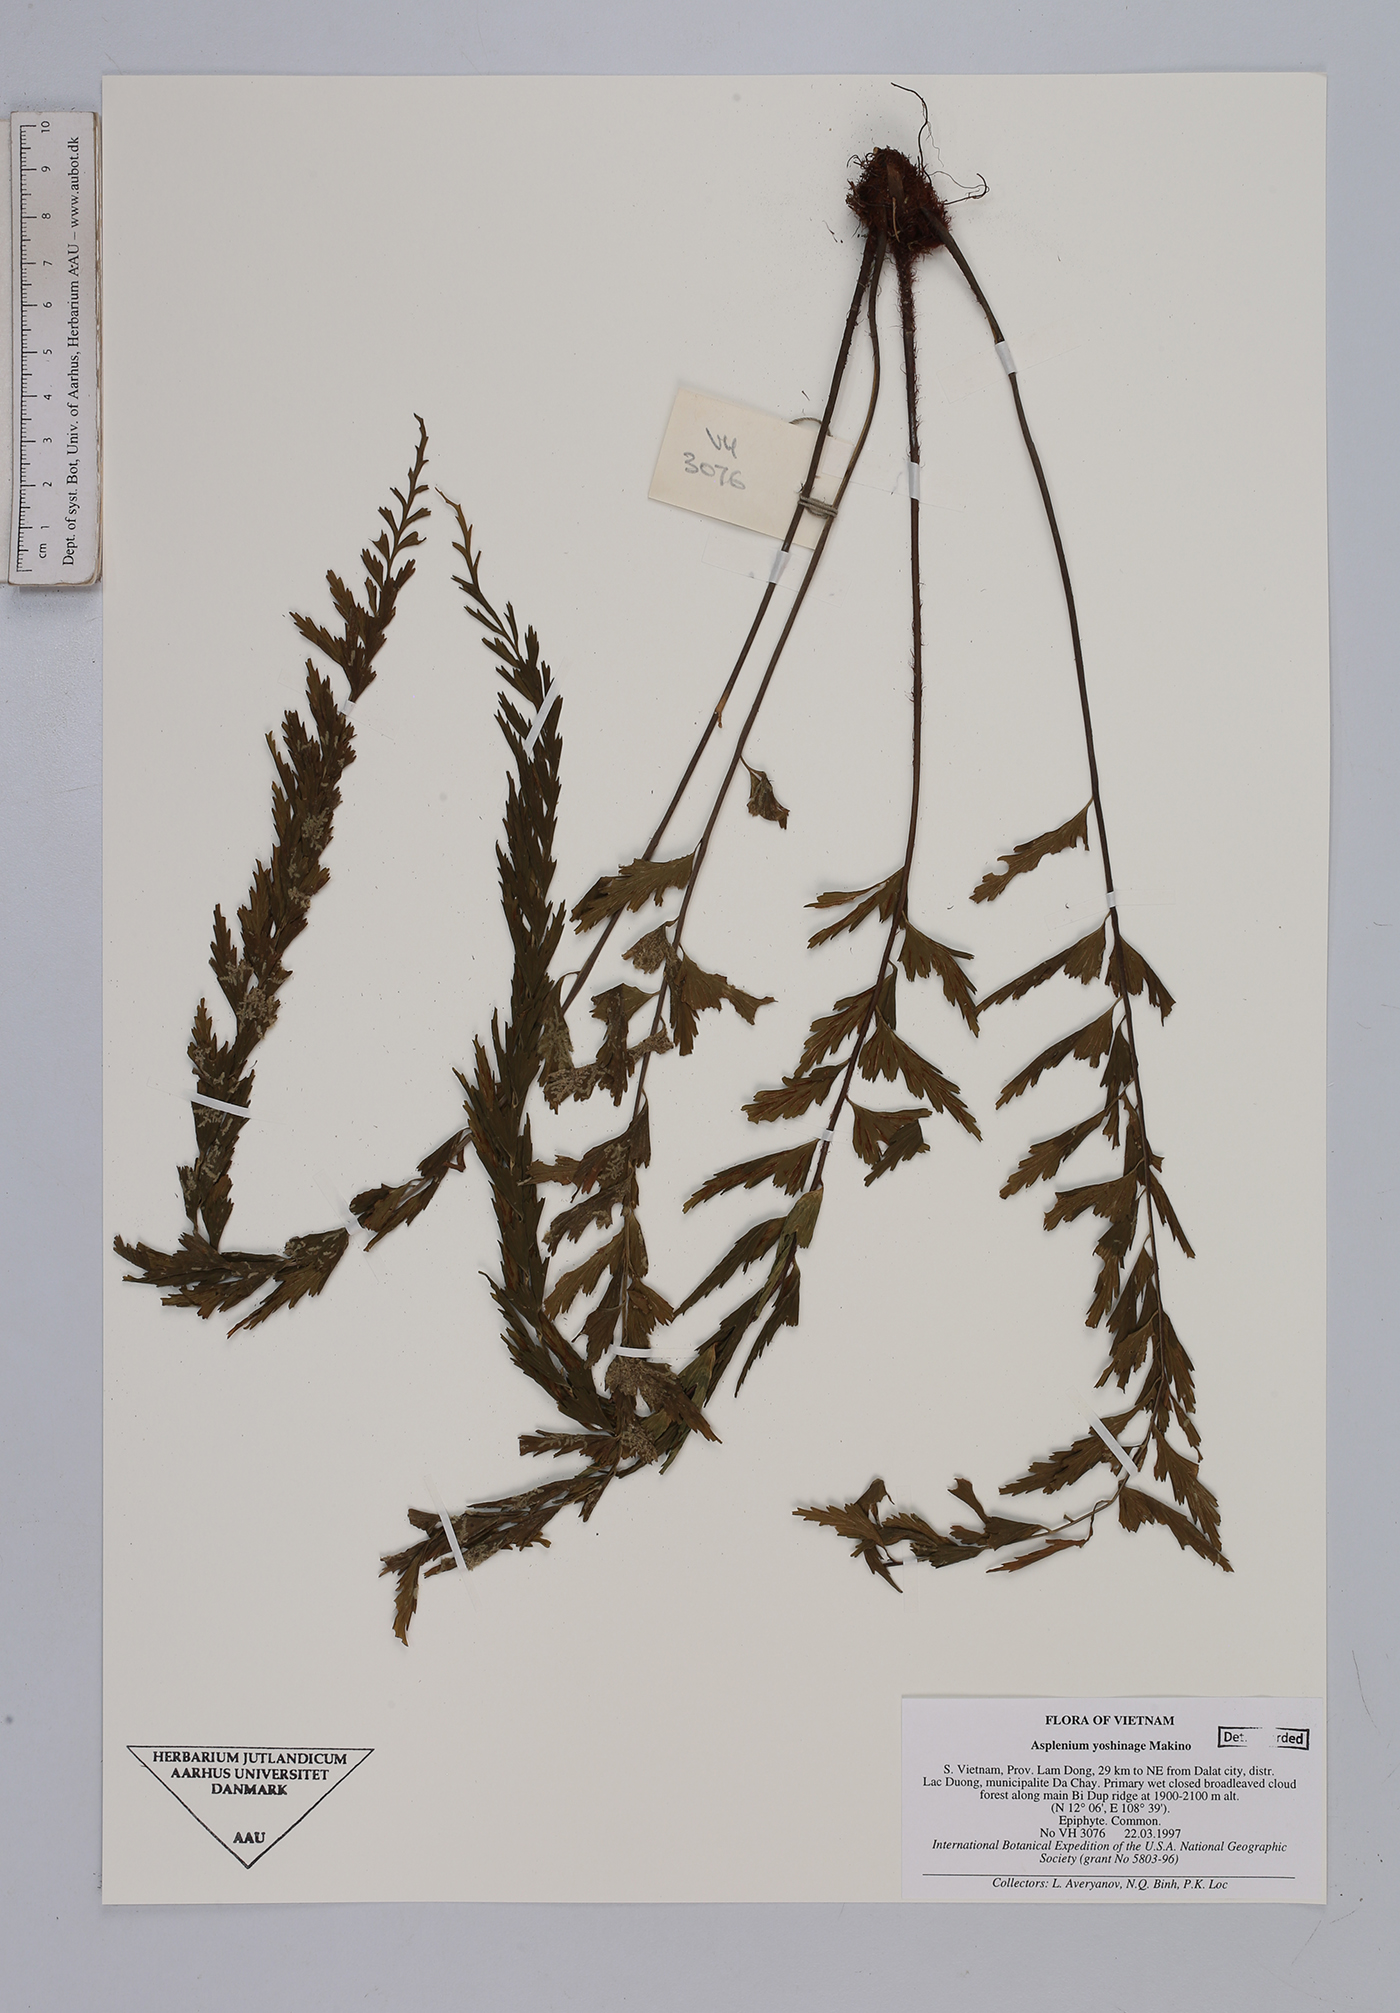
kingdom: Plantae
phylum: Tracheophyta
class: Polypodiopsida
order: Polypodiales
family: Aspleniaceae
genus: Asplenium
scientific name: Asplenium yoshinagae
